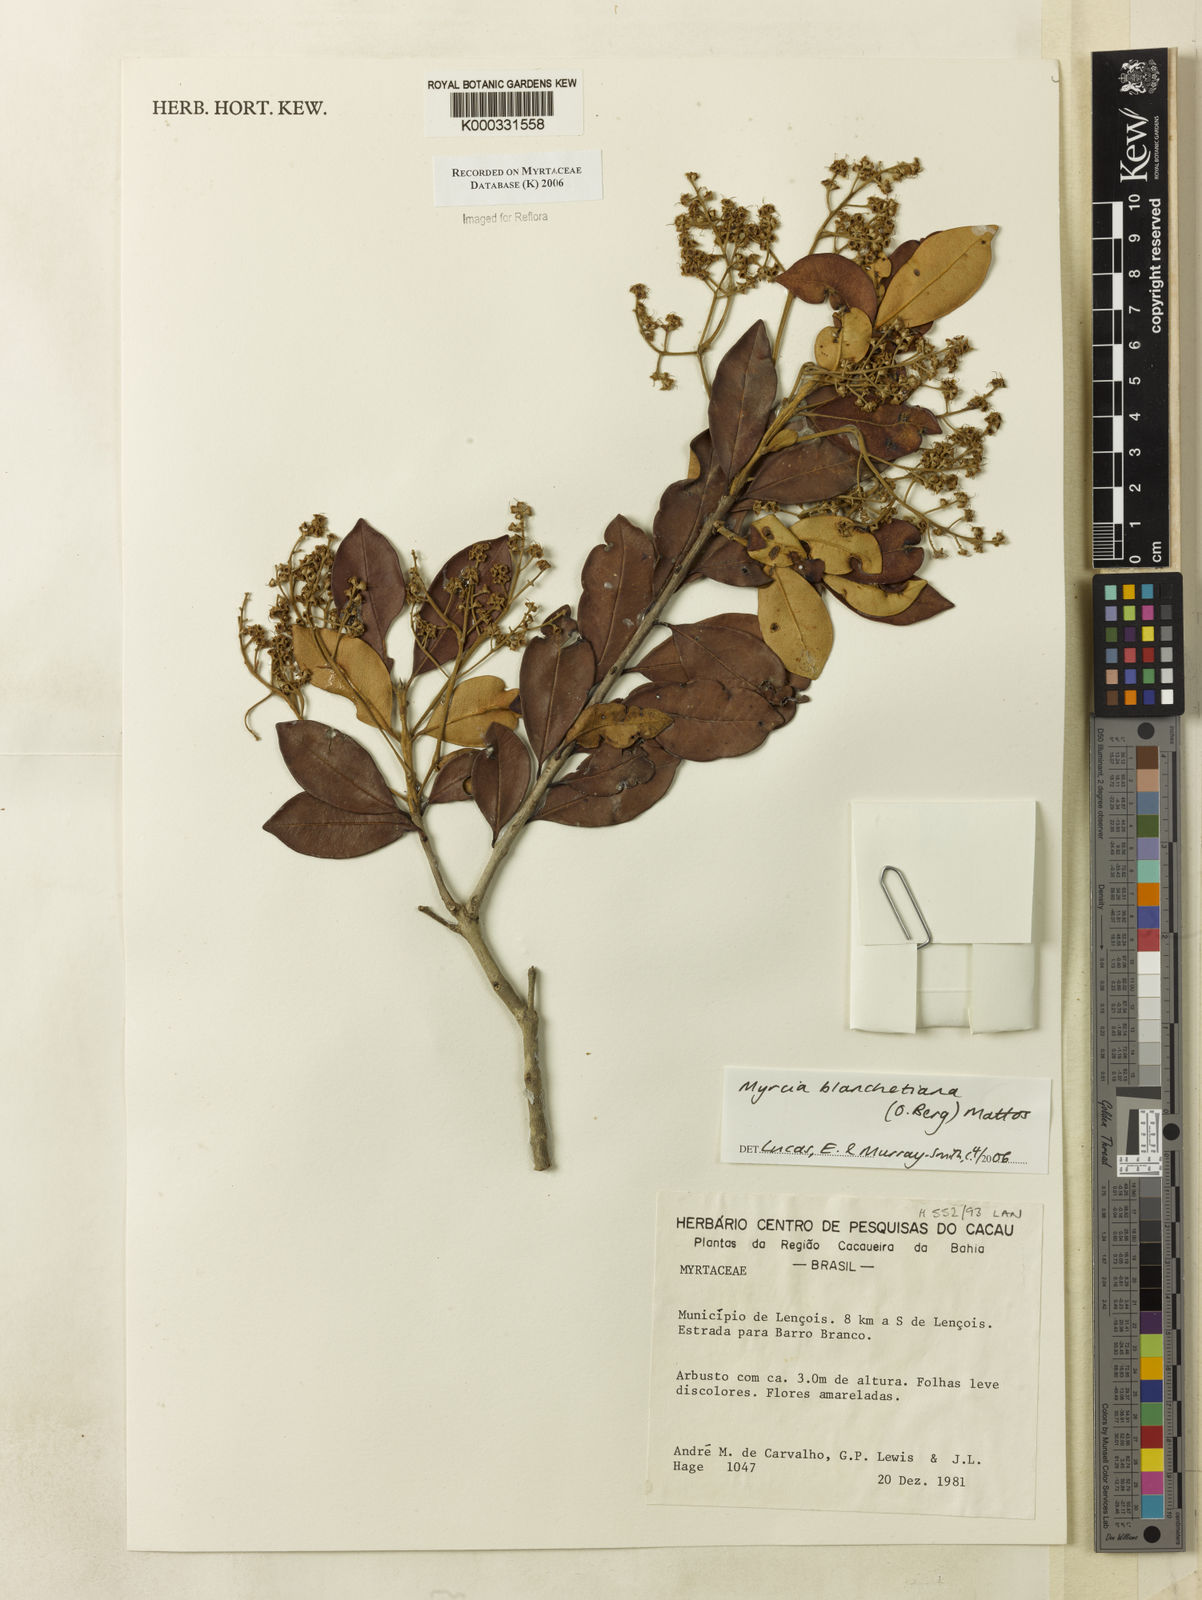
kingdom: Plantae
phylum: Tracheophyta
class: Magnoliopsida
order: Myrtales
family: Myrtaceae
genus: Myrcia
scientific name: Myrcia blanchetiana
